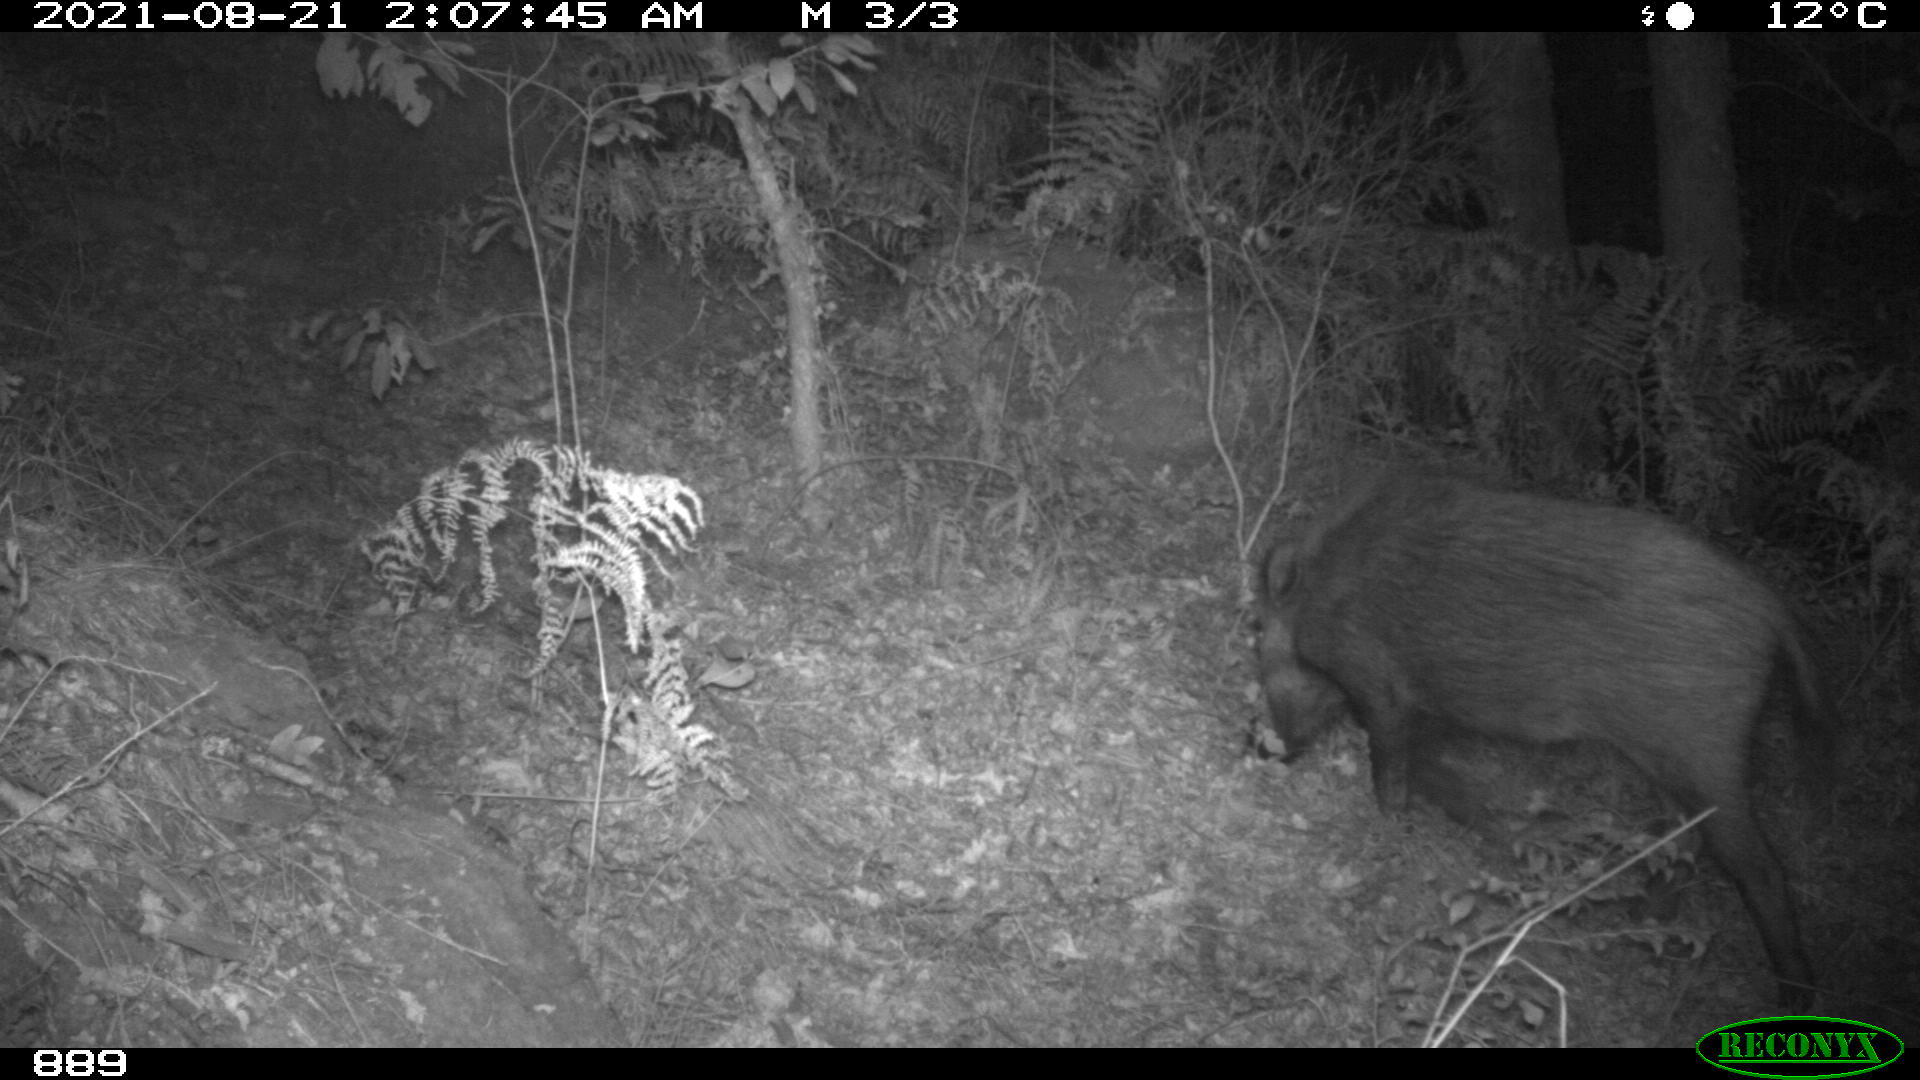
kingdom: Animalia
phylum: Chordata
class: Mammalia
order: Artiodactyla
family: Suidae
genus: Sus
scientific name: Sus scrofa
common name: Wild boar
